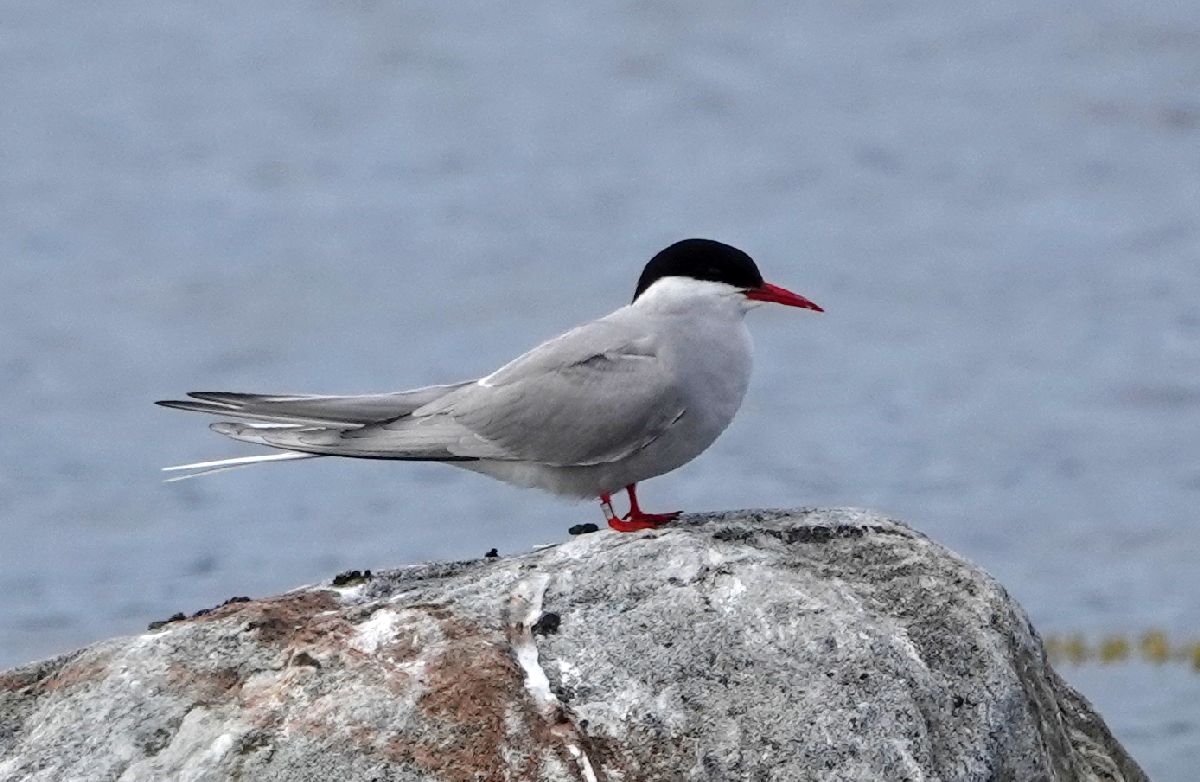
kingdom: Animalia
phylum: Chordata
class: Aves
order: Charadriiformes
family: Laridae
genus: Sterna
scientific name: Sterna paradisaea
